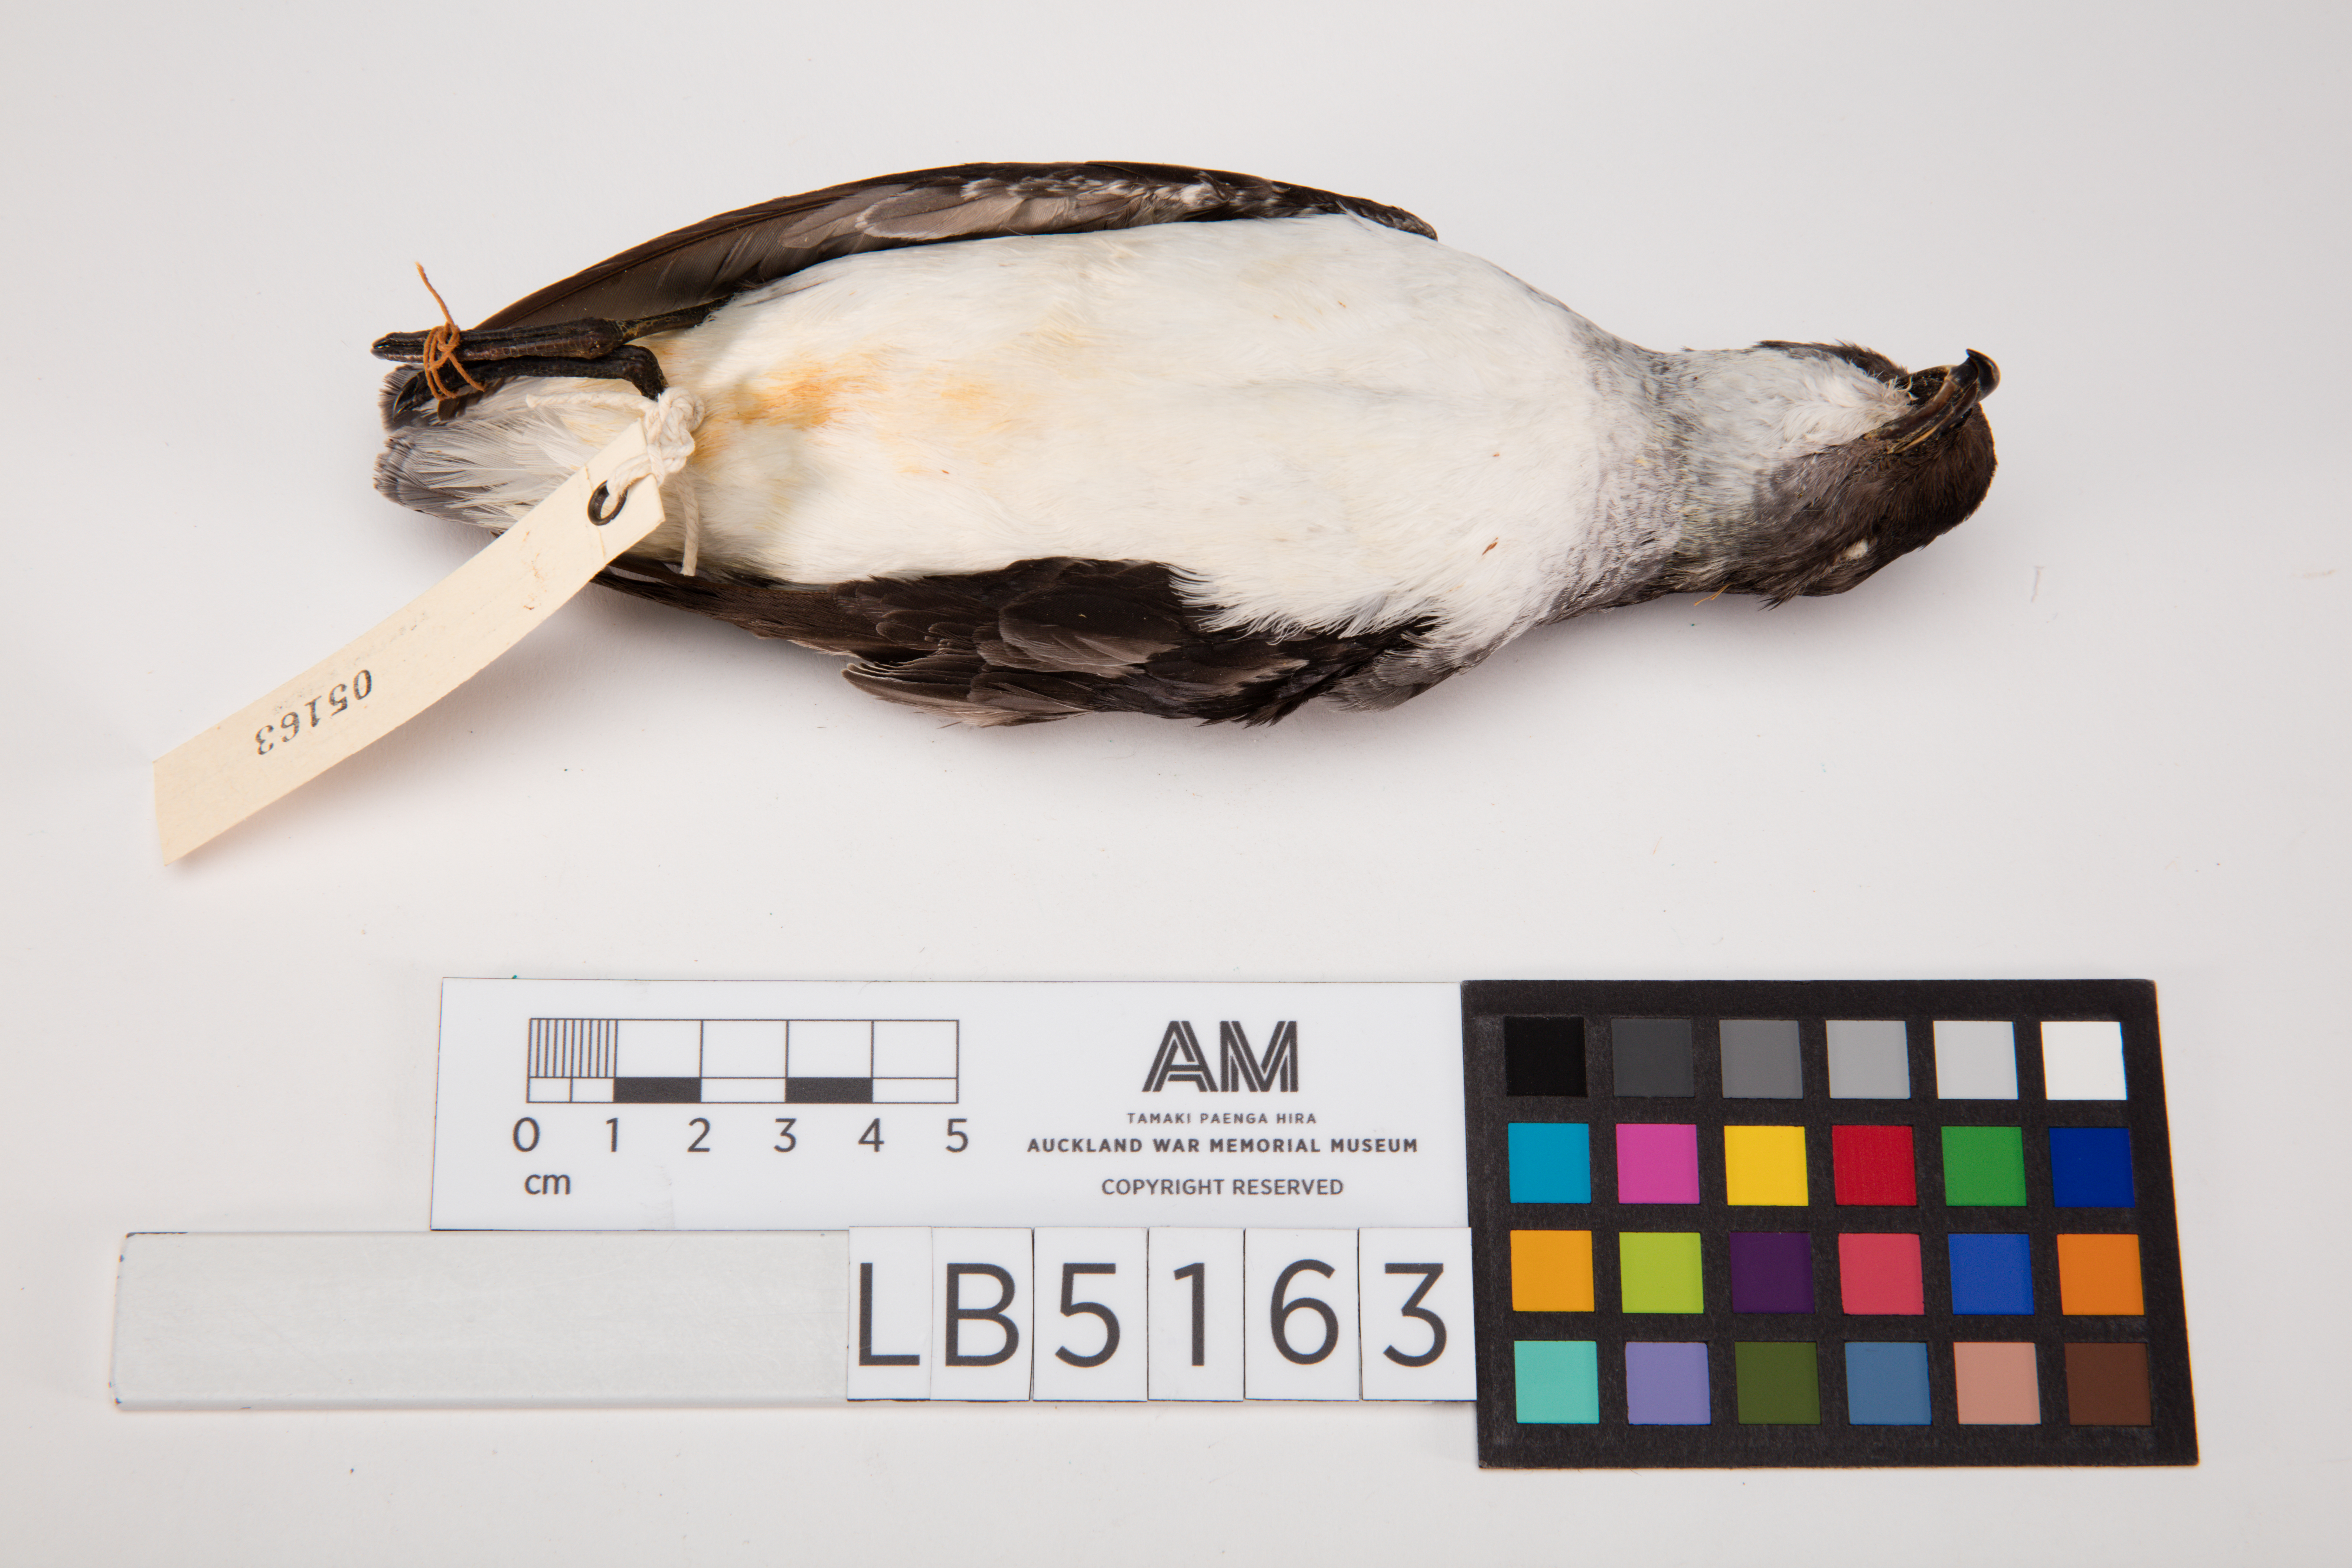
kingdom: Animalia
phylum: Chordata
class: Aves
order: Procellariiformes
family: Pelecanoididae
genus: Pelecanoides
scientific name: Pelecanoides urinatrix
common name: Common diving-petrel
